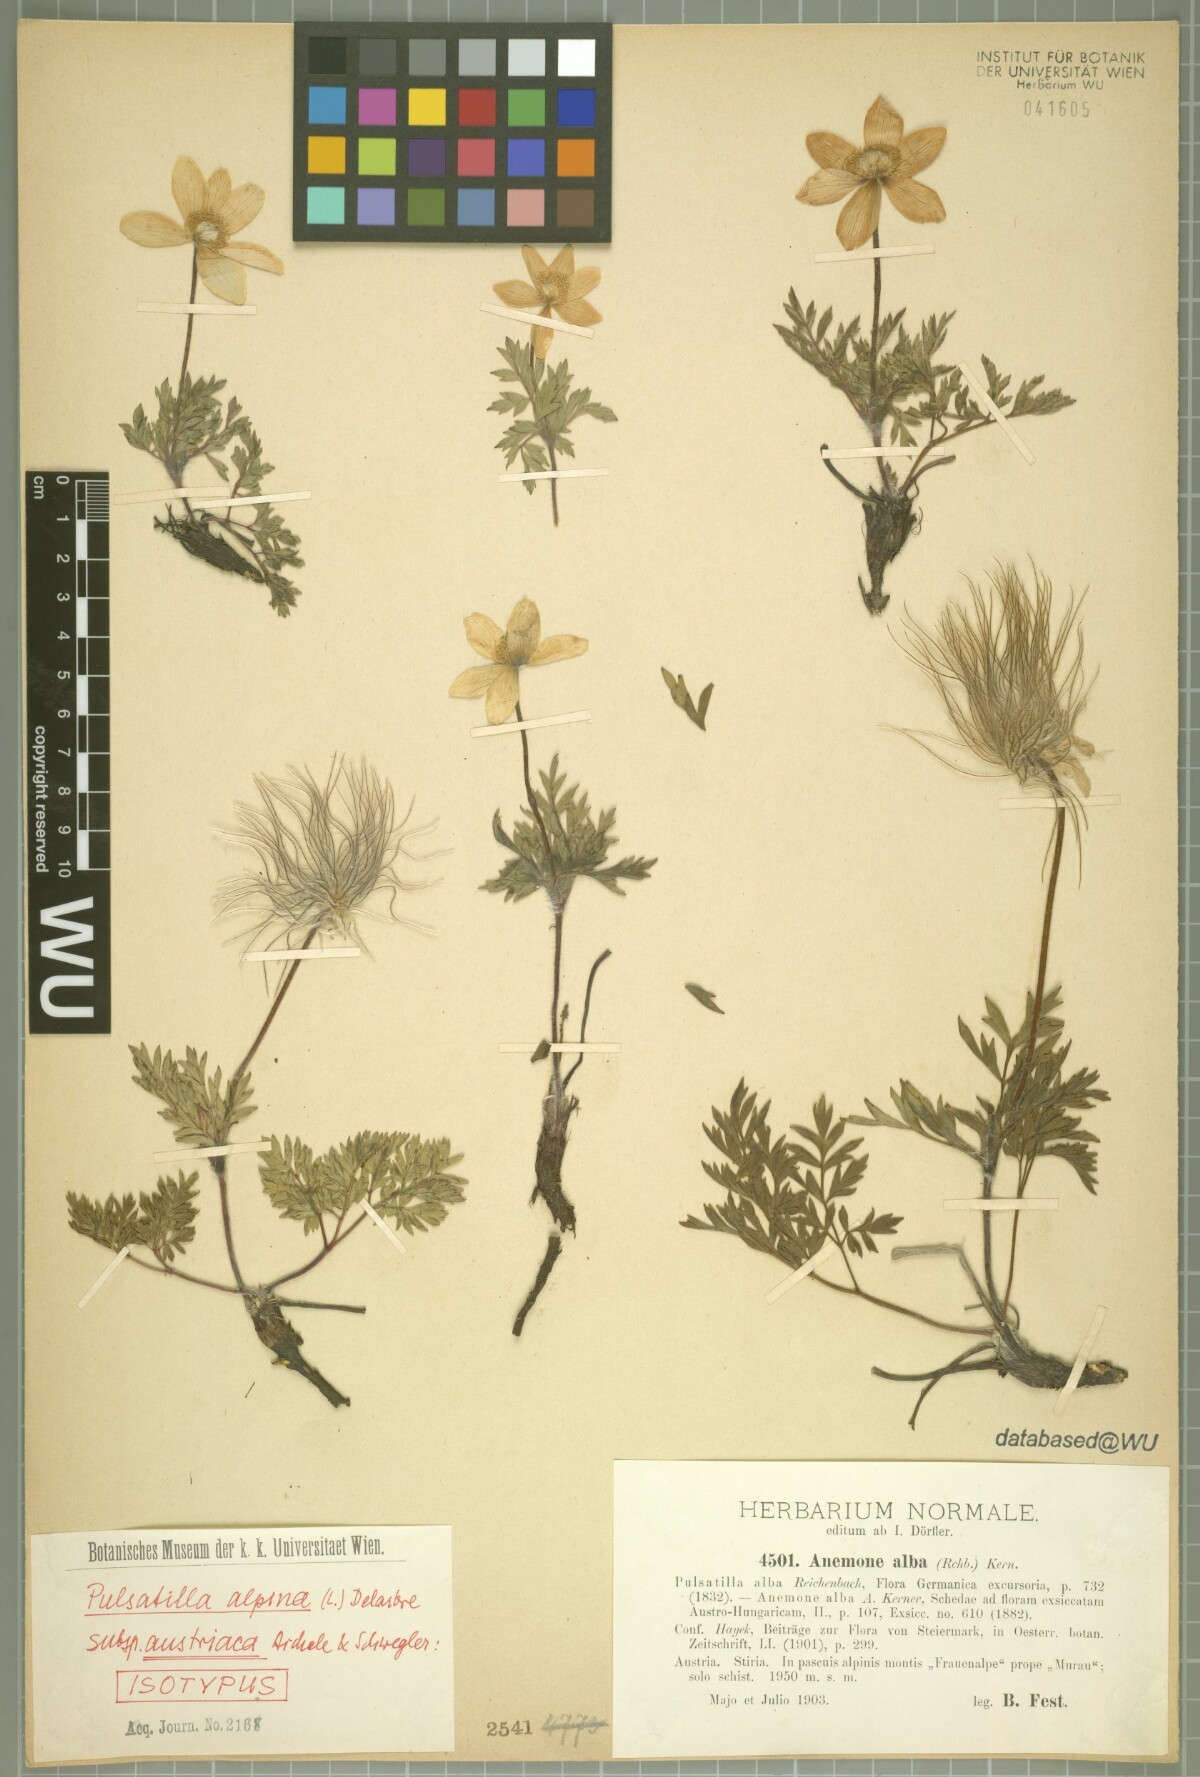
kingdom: Plantae
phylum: Tracheophyta
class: Magnoliopsida
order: Ranunculales
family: Ranunculaceae
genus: Pulsatilla
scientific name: Pulsatilla alpina
